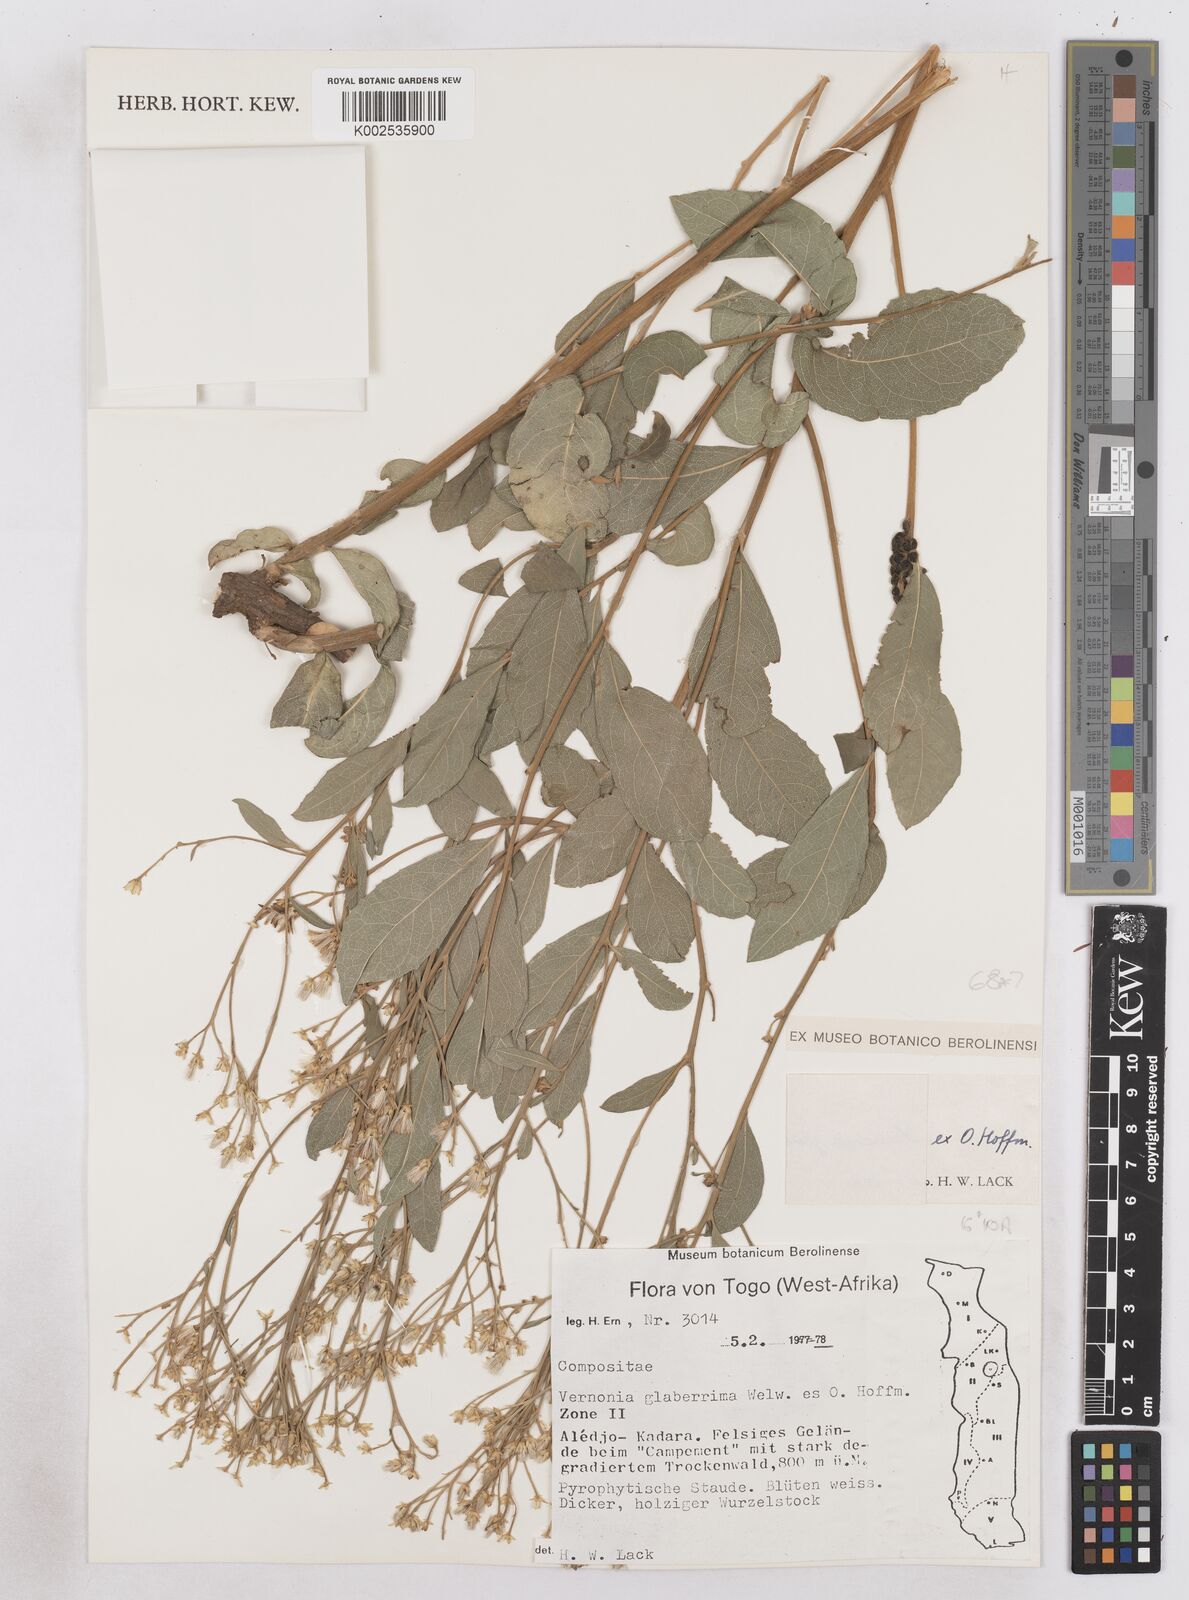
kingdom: Plantae
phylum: Tracheophyta
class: Magnoliopsida
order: Asterales
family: Asteraceae
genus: Gymnanthemum
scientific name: Gymnanthemum glaberrimum
